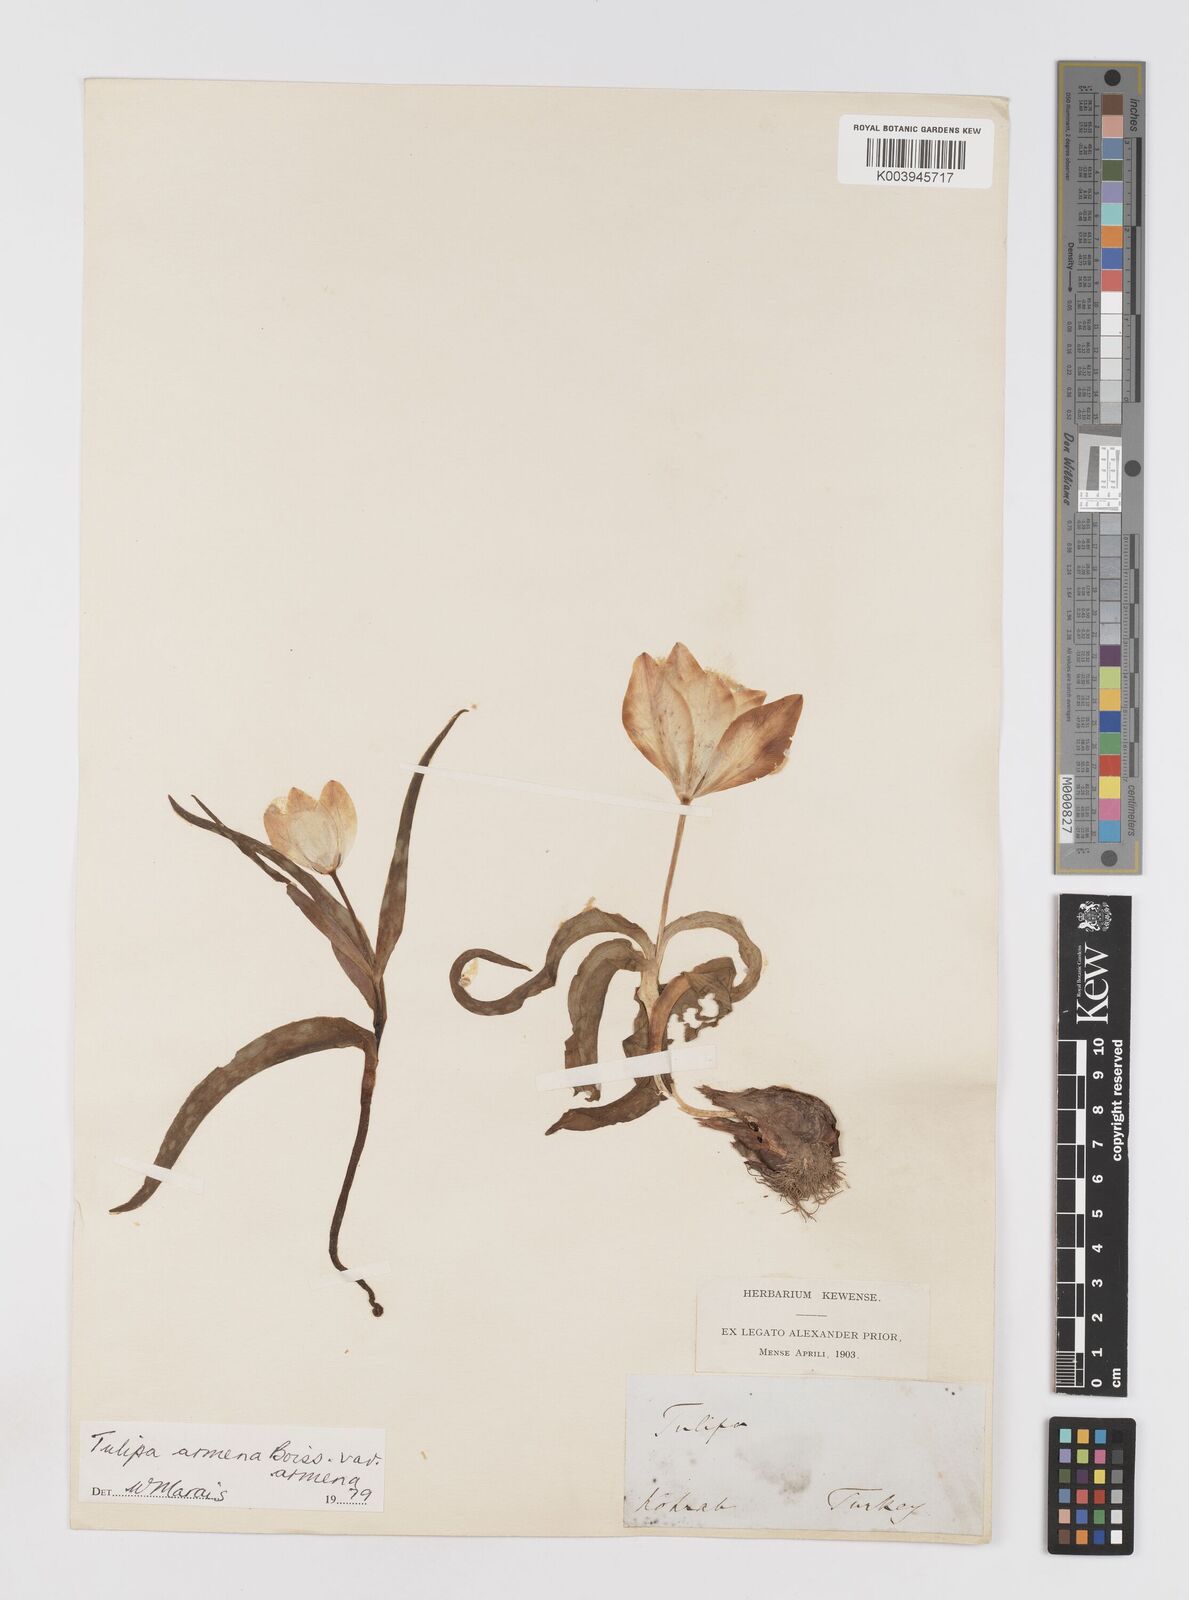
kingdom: Plantae
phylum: Tracheophyta
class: Liliopsida
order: Liliales
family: Liliaceae
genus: Tulipa
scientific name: Tulipa armena
